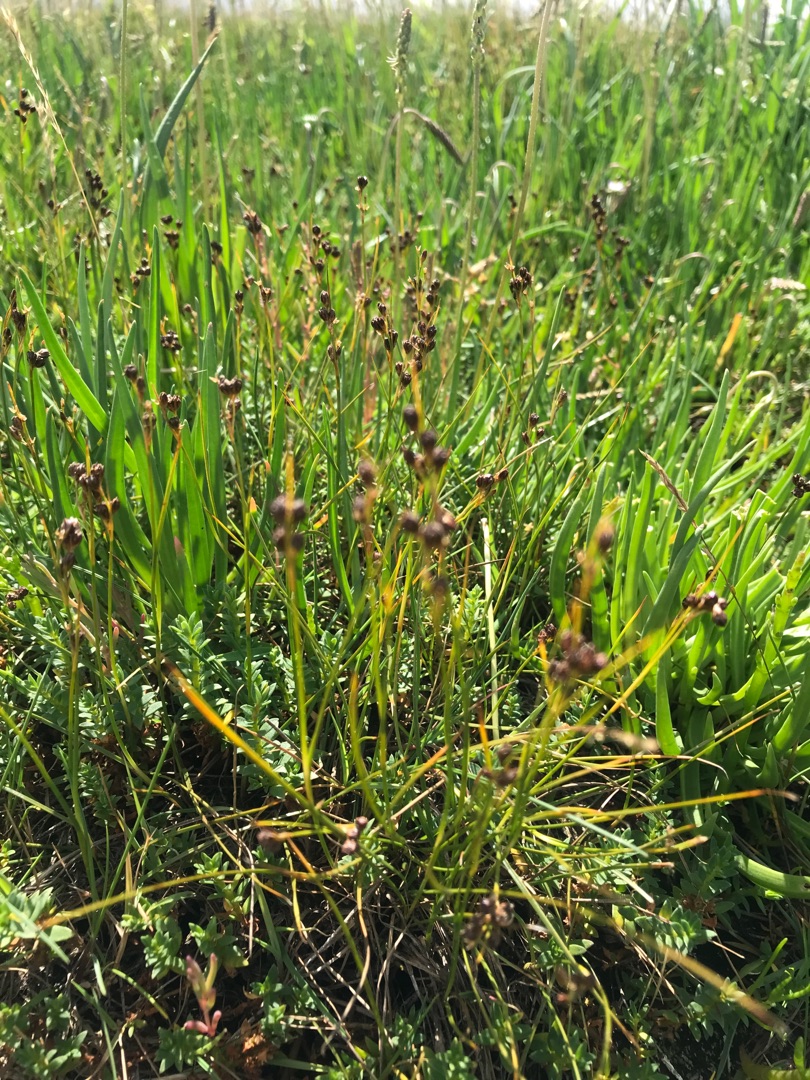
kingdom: Plantae
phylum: Tracheophyta
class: Liliopsida
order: Poales
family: Juncaceae
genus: Juncus
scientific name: Juncus gerardi
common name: Harril
